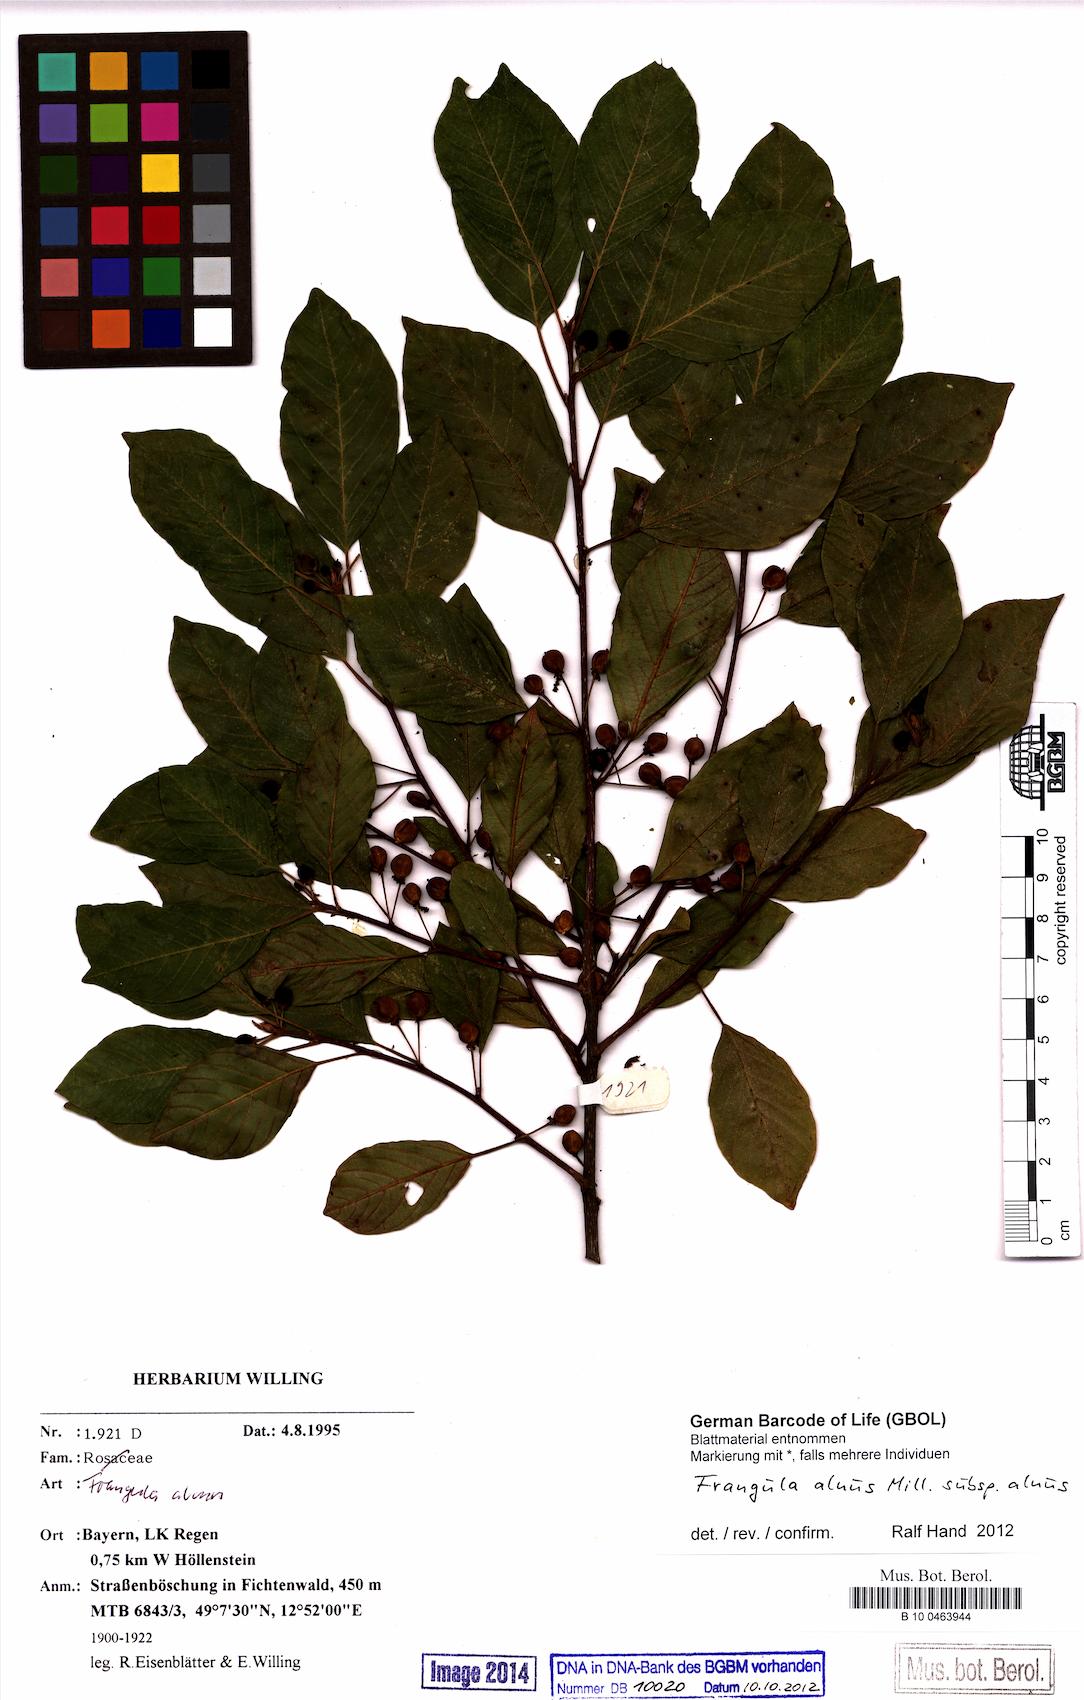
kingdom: Plantae
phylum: Tracheophyta
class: Magnoliopsida
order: Rosales
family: Rhamnaceae
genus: Frangula
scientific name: Frangula alnus
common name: Alder buckthorn
